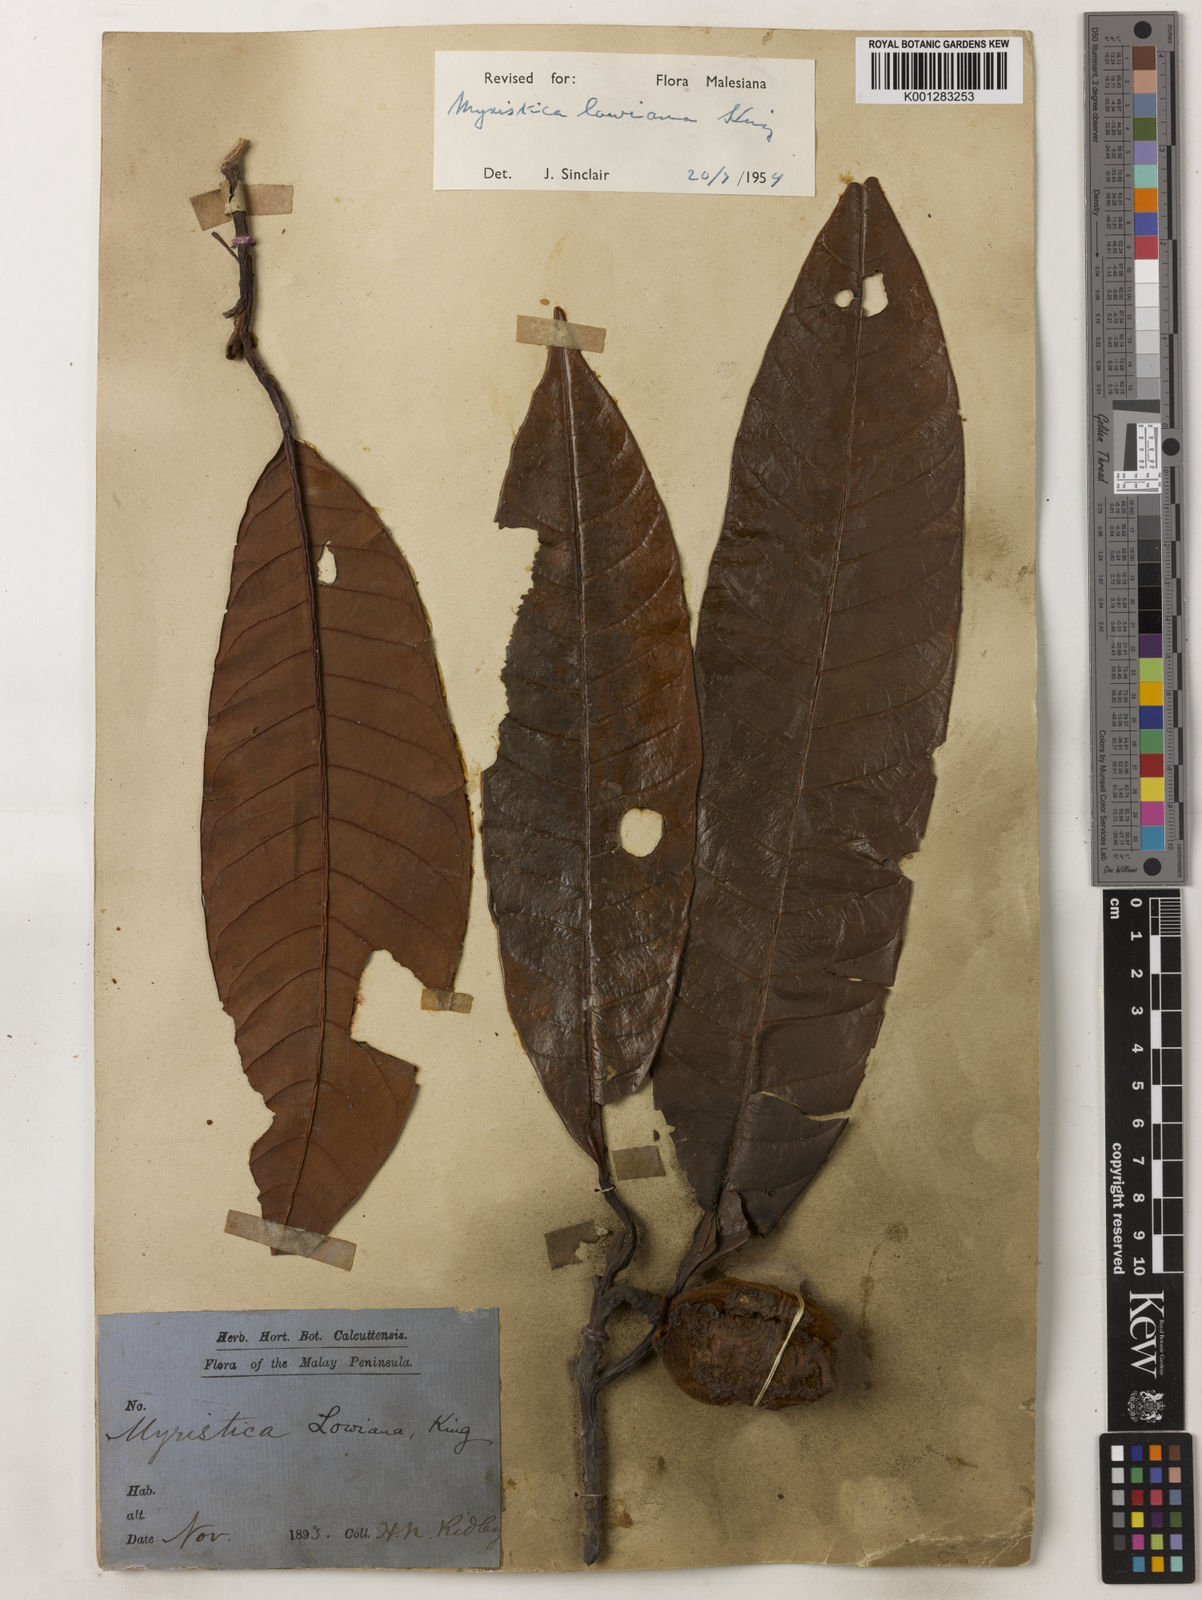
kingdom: Plantae
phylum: Tracheophyta
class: Magnoliopsida
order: Magnoliales
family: Myristicaceae
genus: Myristica
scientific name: Myristica lowiana
